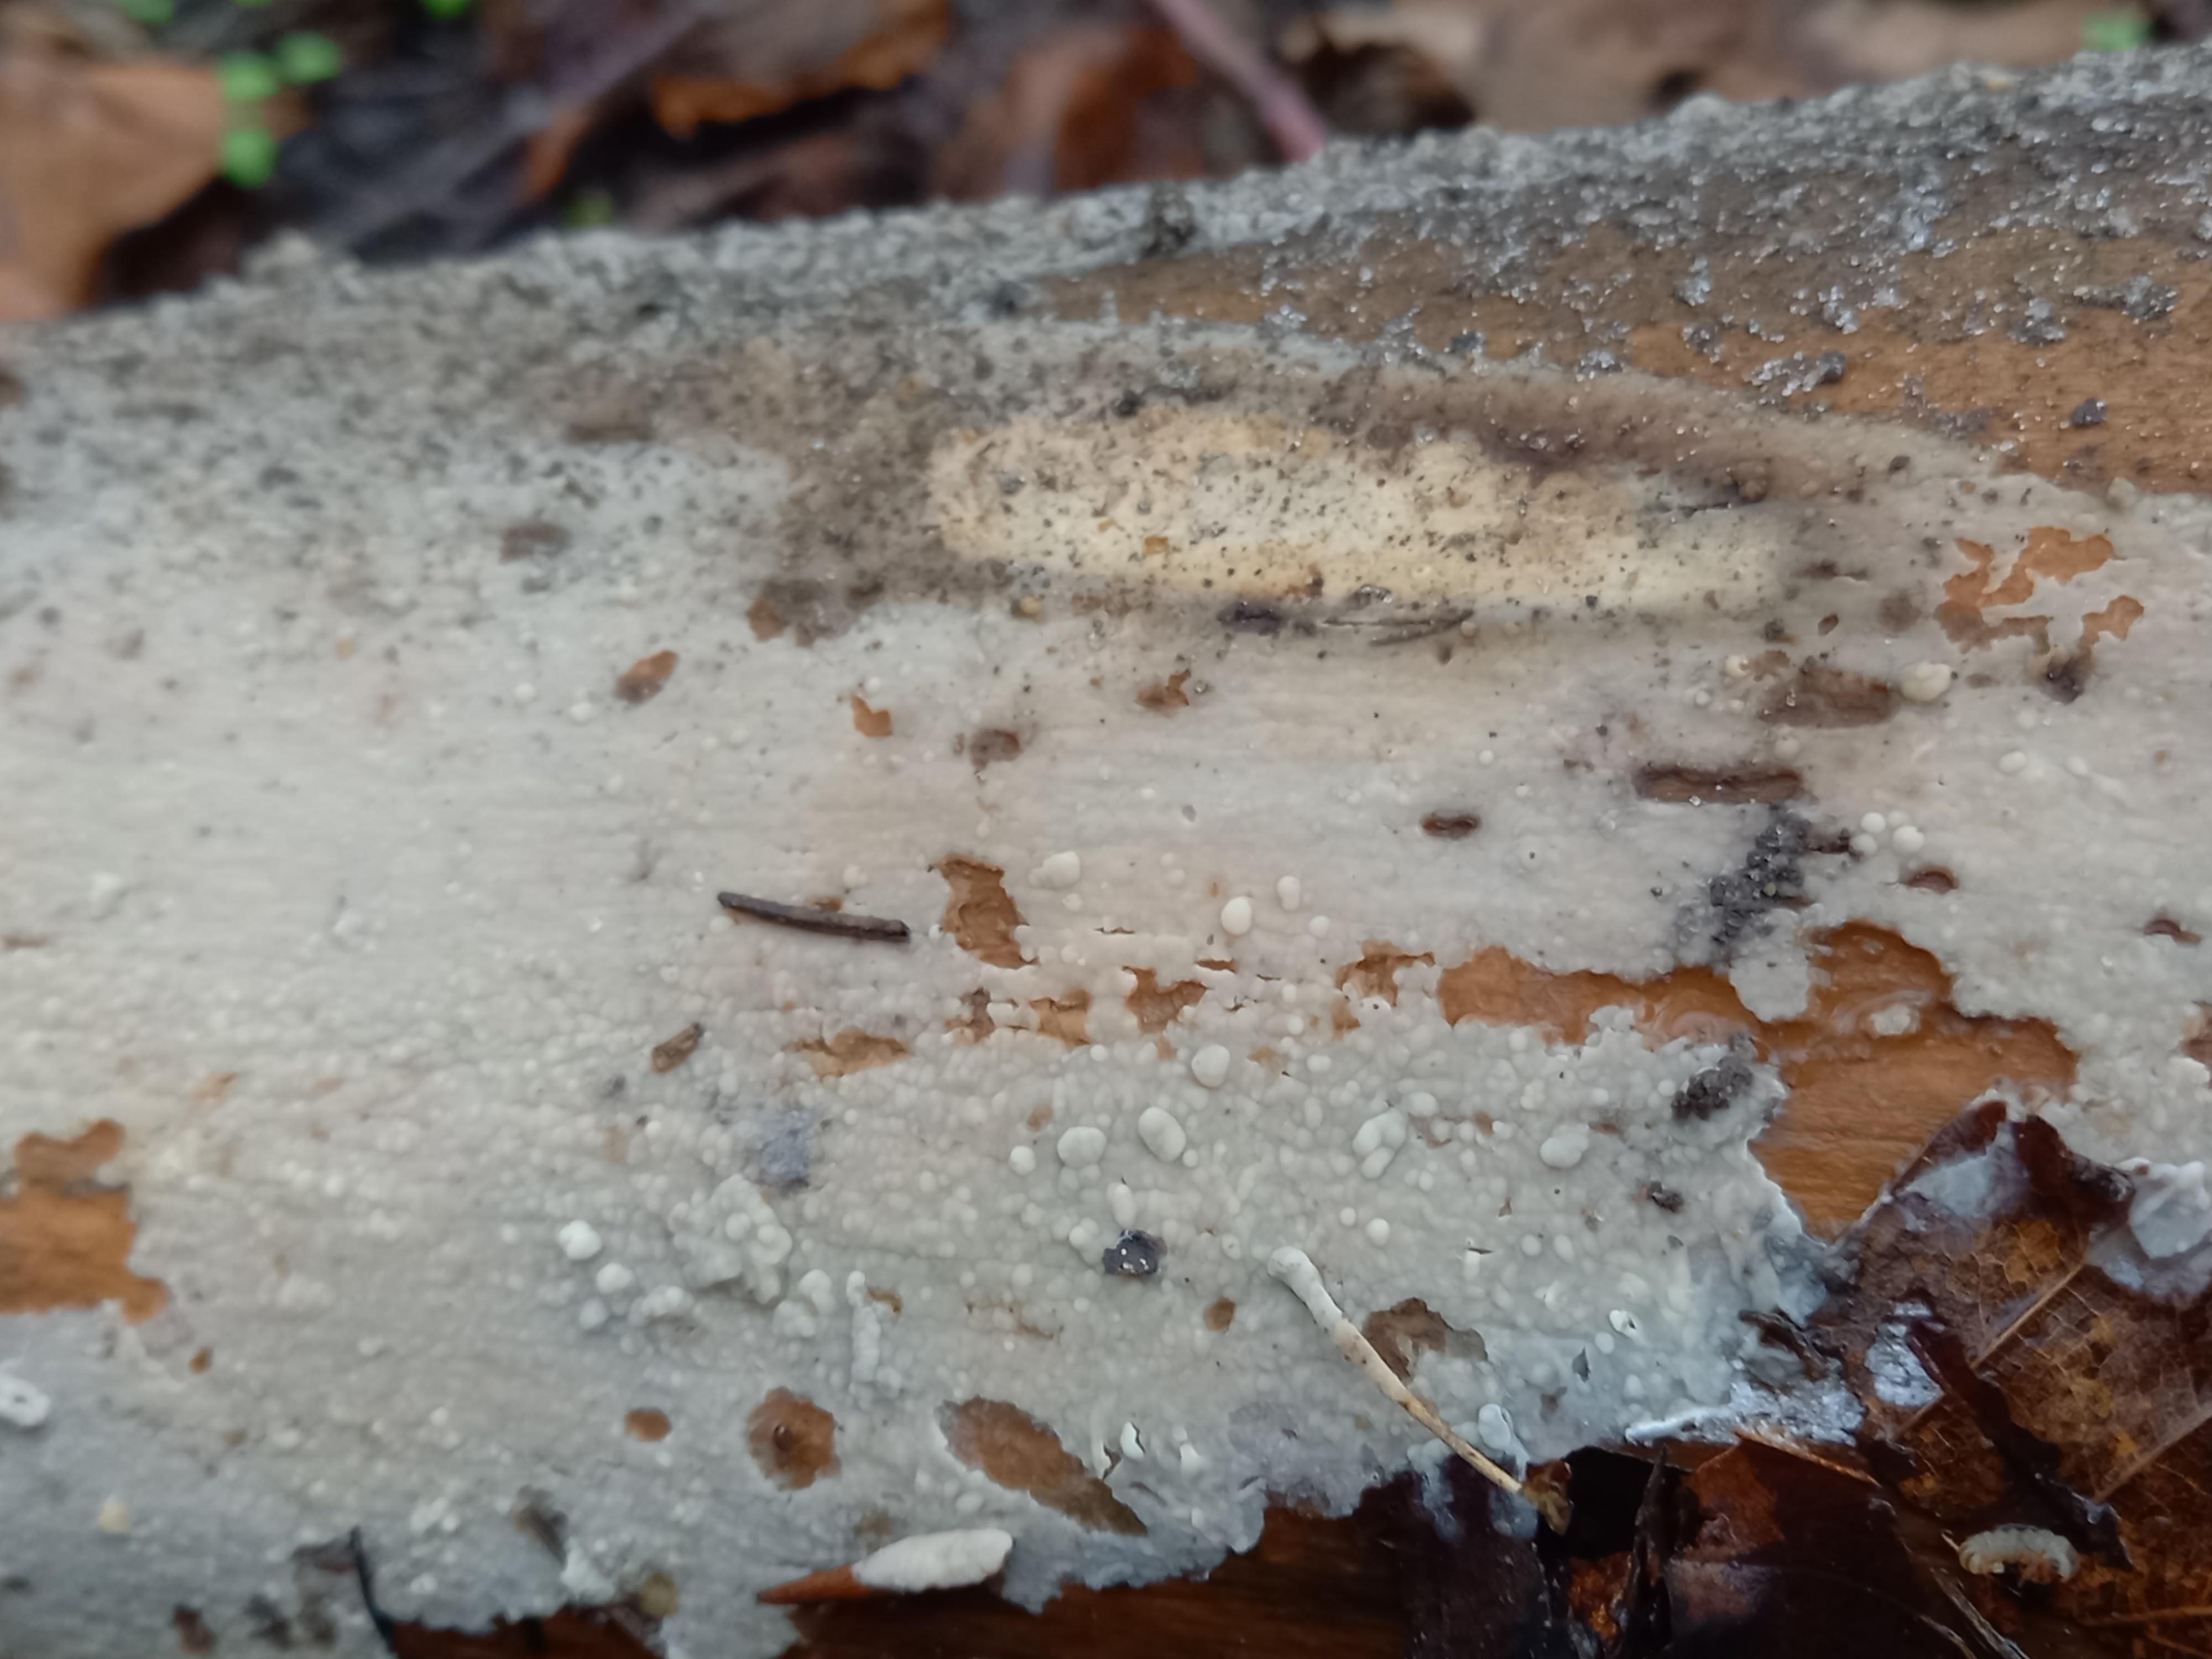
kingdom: Fungi
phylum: Basidiomycota
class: Agaricomycetes
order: Agaricales
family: Radulomycetaceae
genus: Radulomyces
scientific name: Radulomyces confluens
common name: glat naftalinskind
